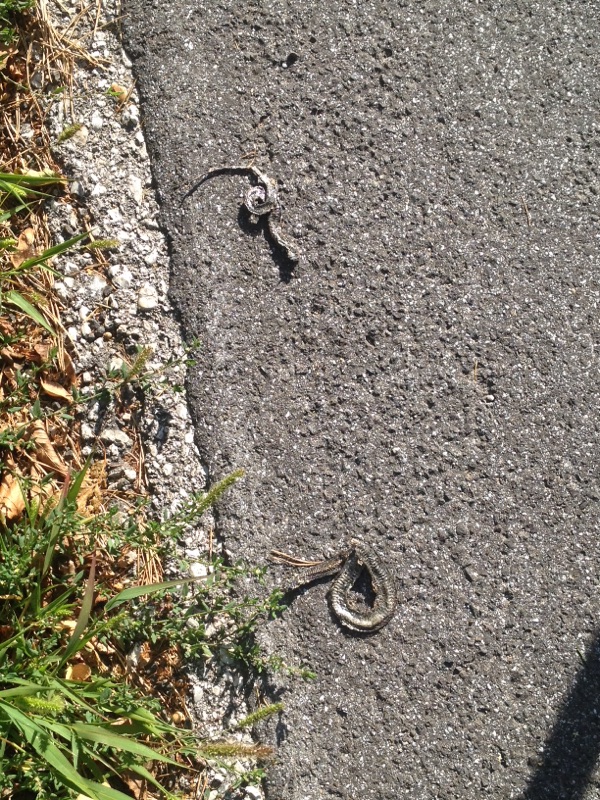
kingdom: Animalia
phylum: Chordata
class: Squamata
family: Colubridae
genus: Natrix
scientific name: Natrix natrix
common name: Grass snake
